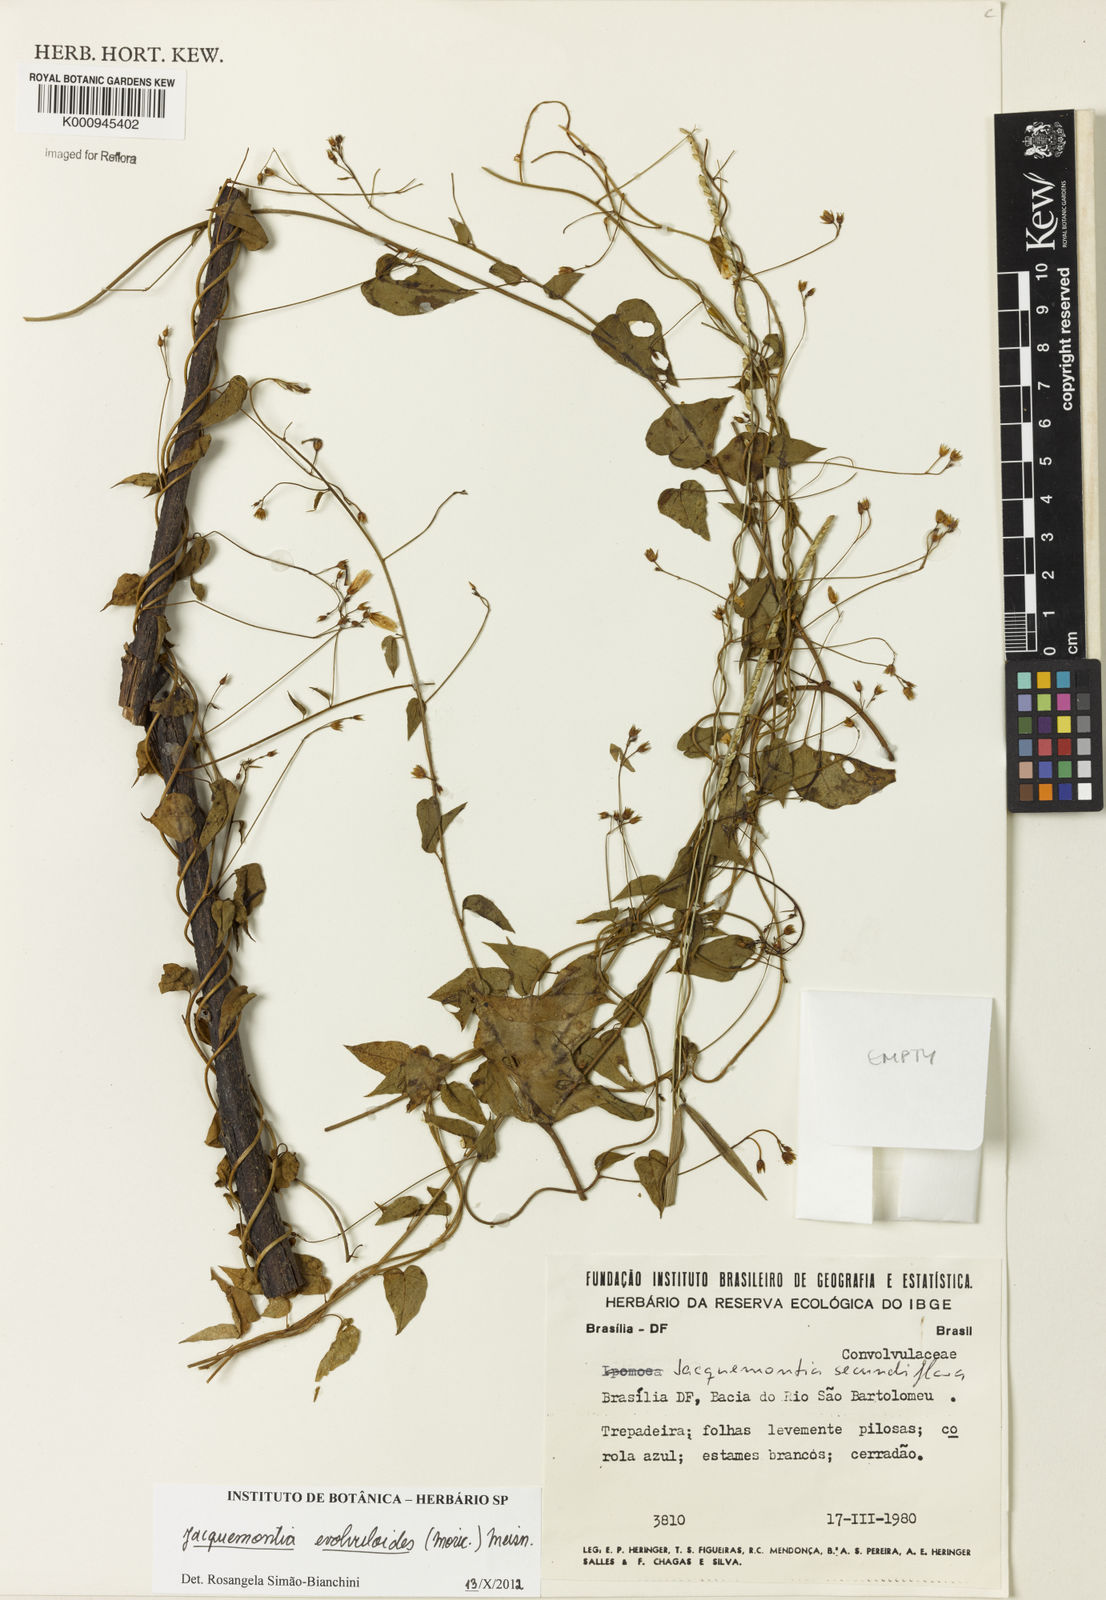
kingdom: Plantae
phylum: Tracheophyta
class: Magnoliopsida
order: Solanales
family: Convolvulaceae
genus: Jacquemontia
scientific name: Jacquemontia agrestis
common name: Midnightblue clustervine
